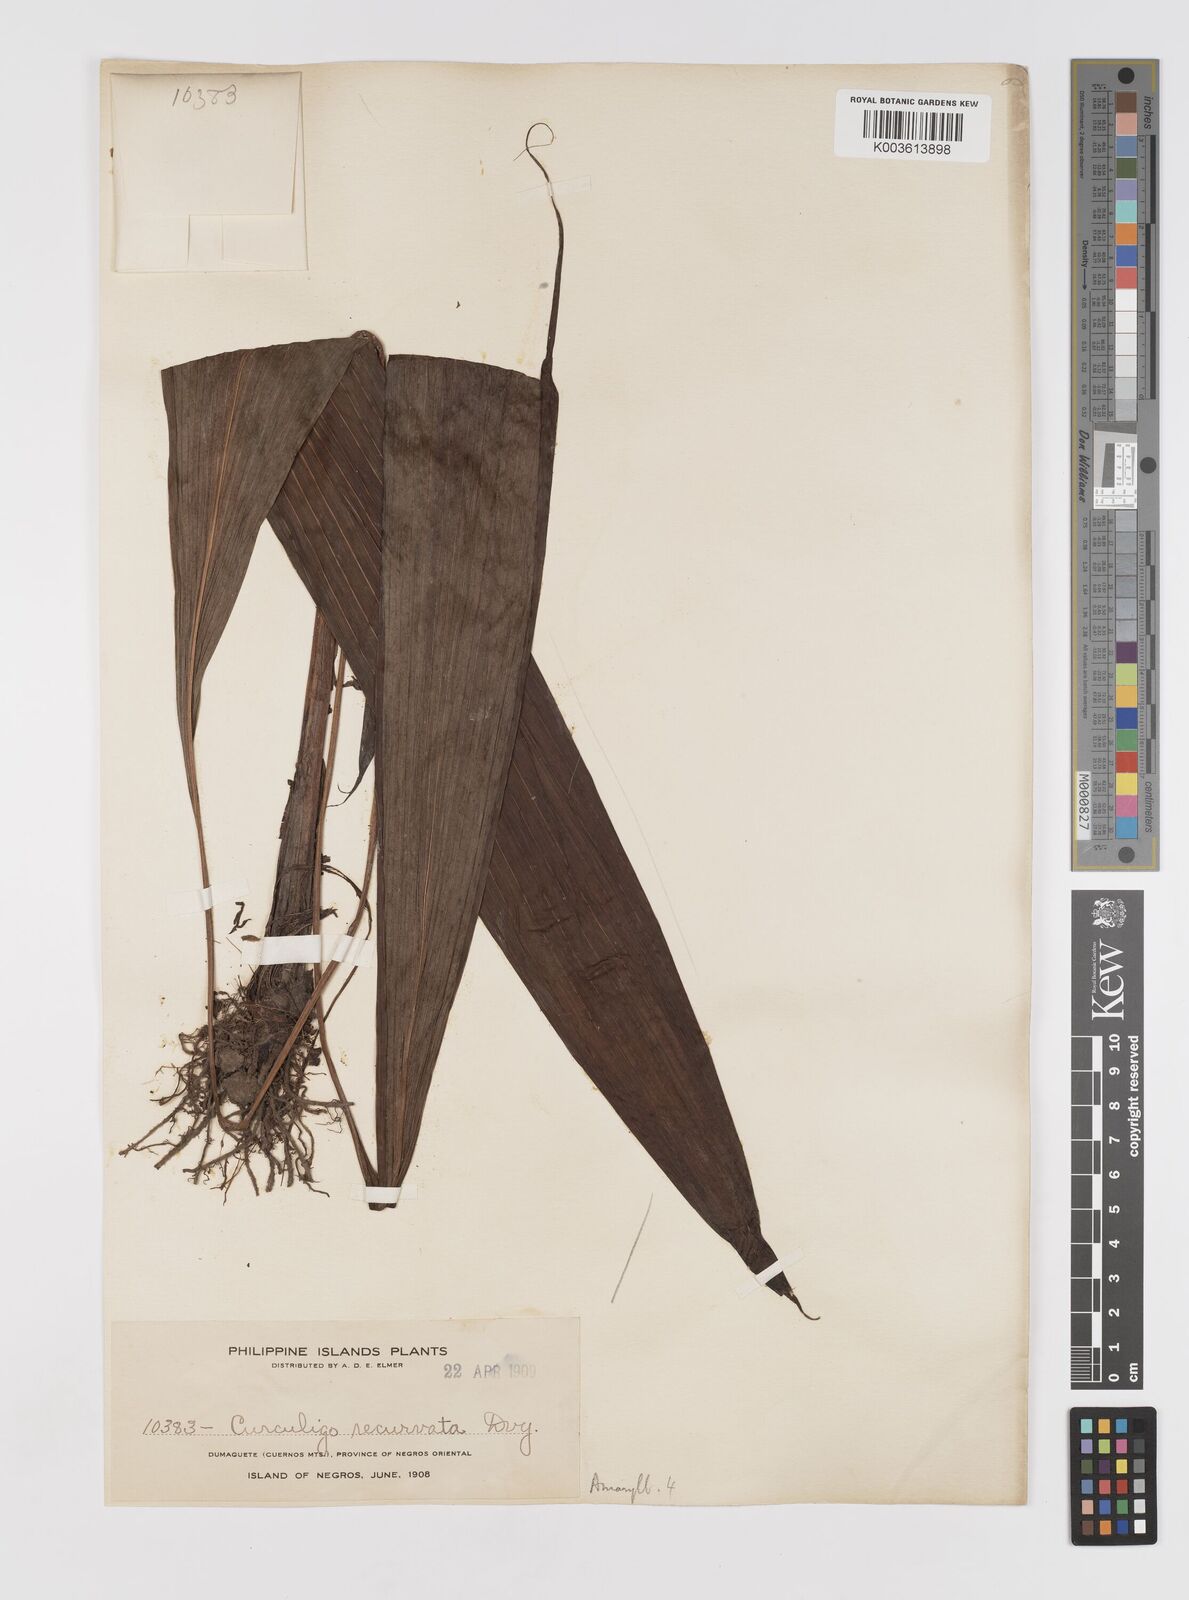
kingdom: Plantae
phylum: Tracheophyta
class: Liliopsida
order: Asparagales
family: Hypoxidaceae
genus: Curculigo
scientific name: Curculigo capitulata
